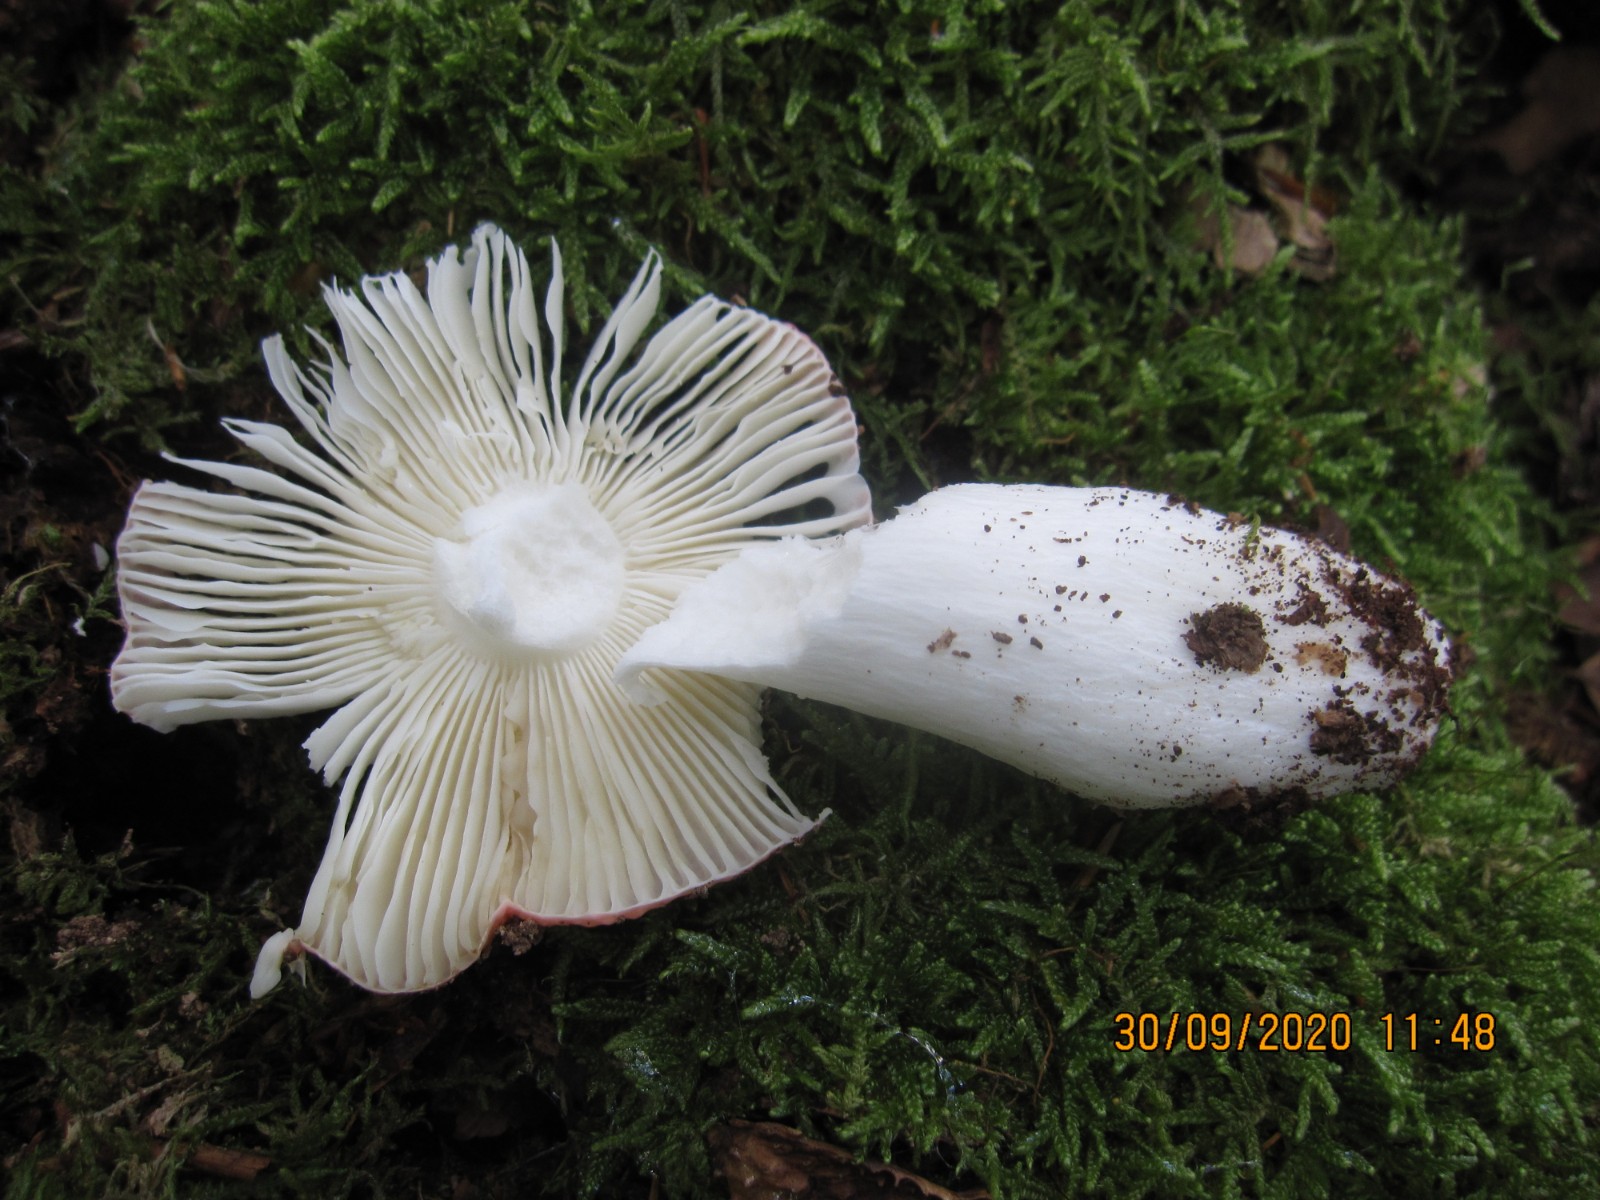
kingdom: Fungi
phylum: Basidiomycota
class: Agaricomycetes
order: Russulales
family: Russulaceae
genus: Russula
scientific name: Russula silvestris
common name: mellemstor gift-skørhat
